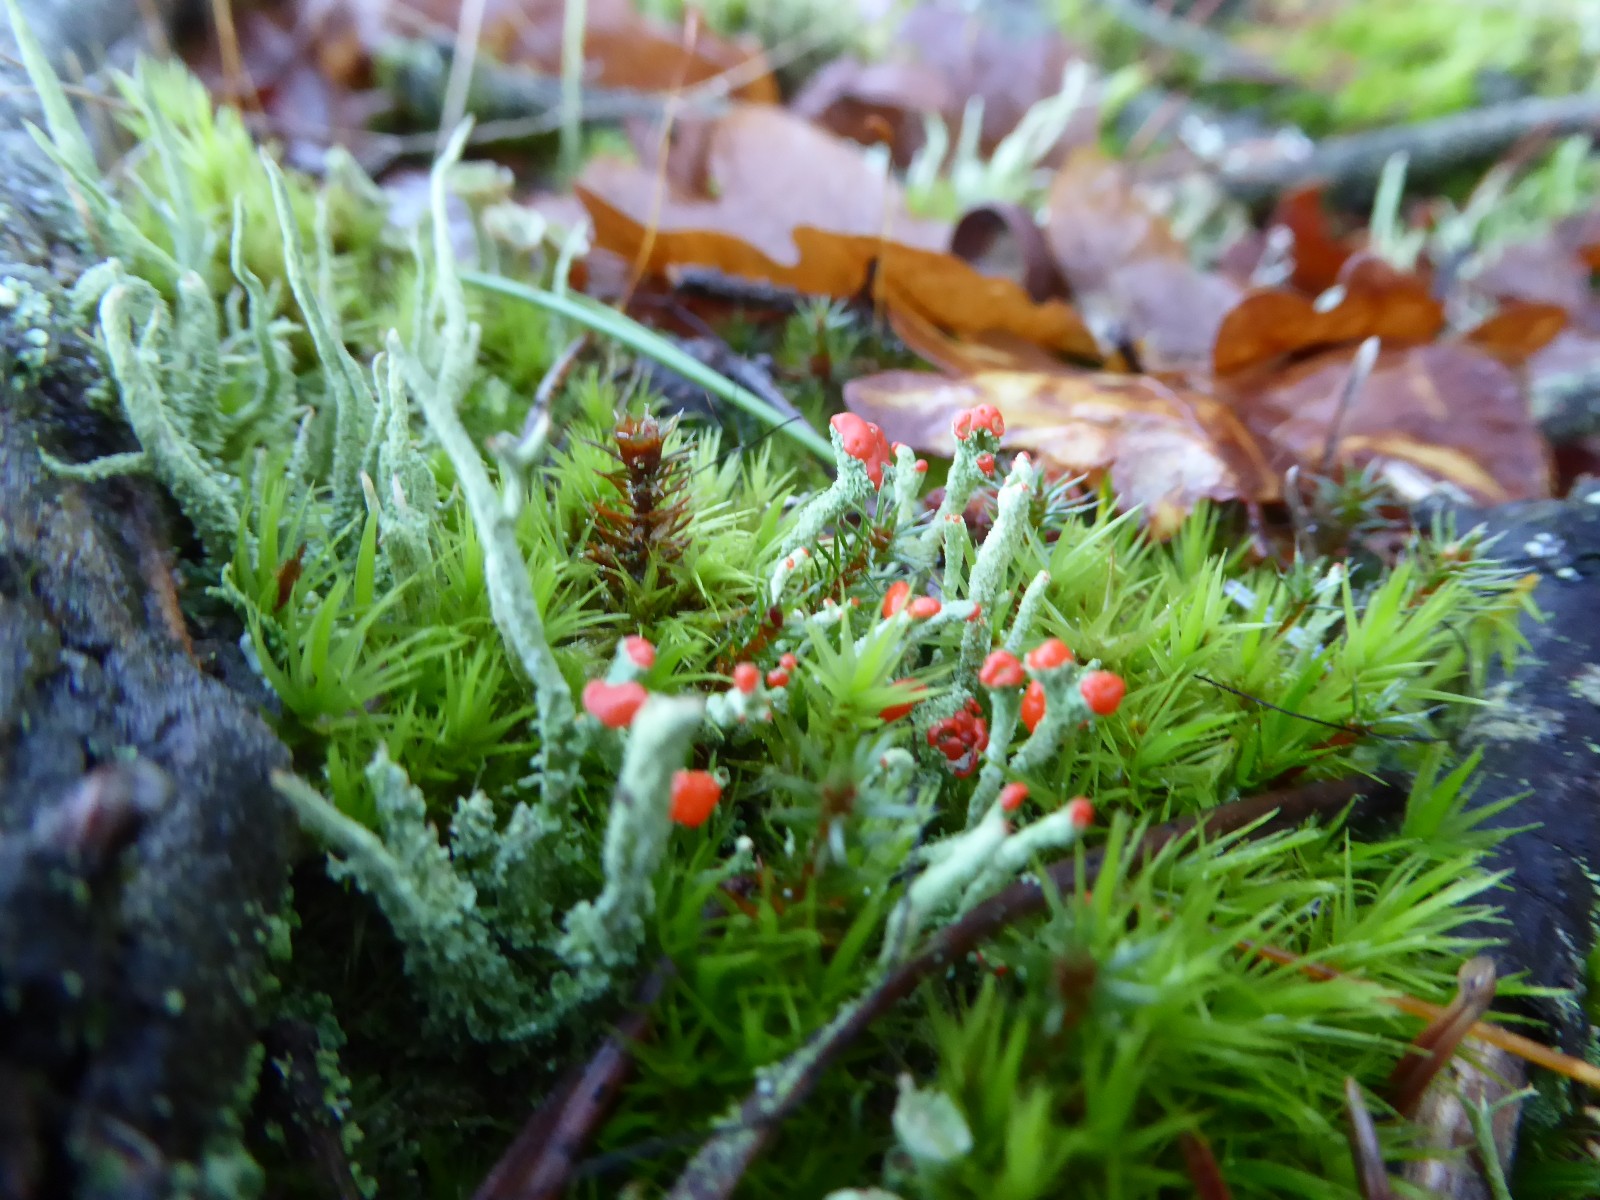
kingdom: Fungi
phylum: Ascomycota
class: Lecanoromycetes
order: Lecanorales
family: Cladoniaceae
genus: Cladonia
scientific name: Cladonia floerkeana
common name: lakrød bægerlav
